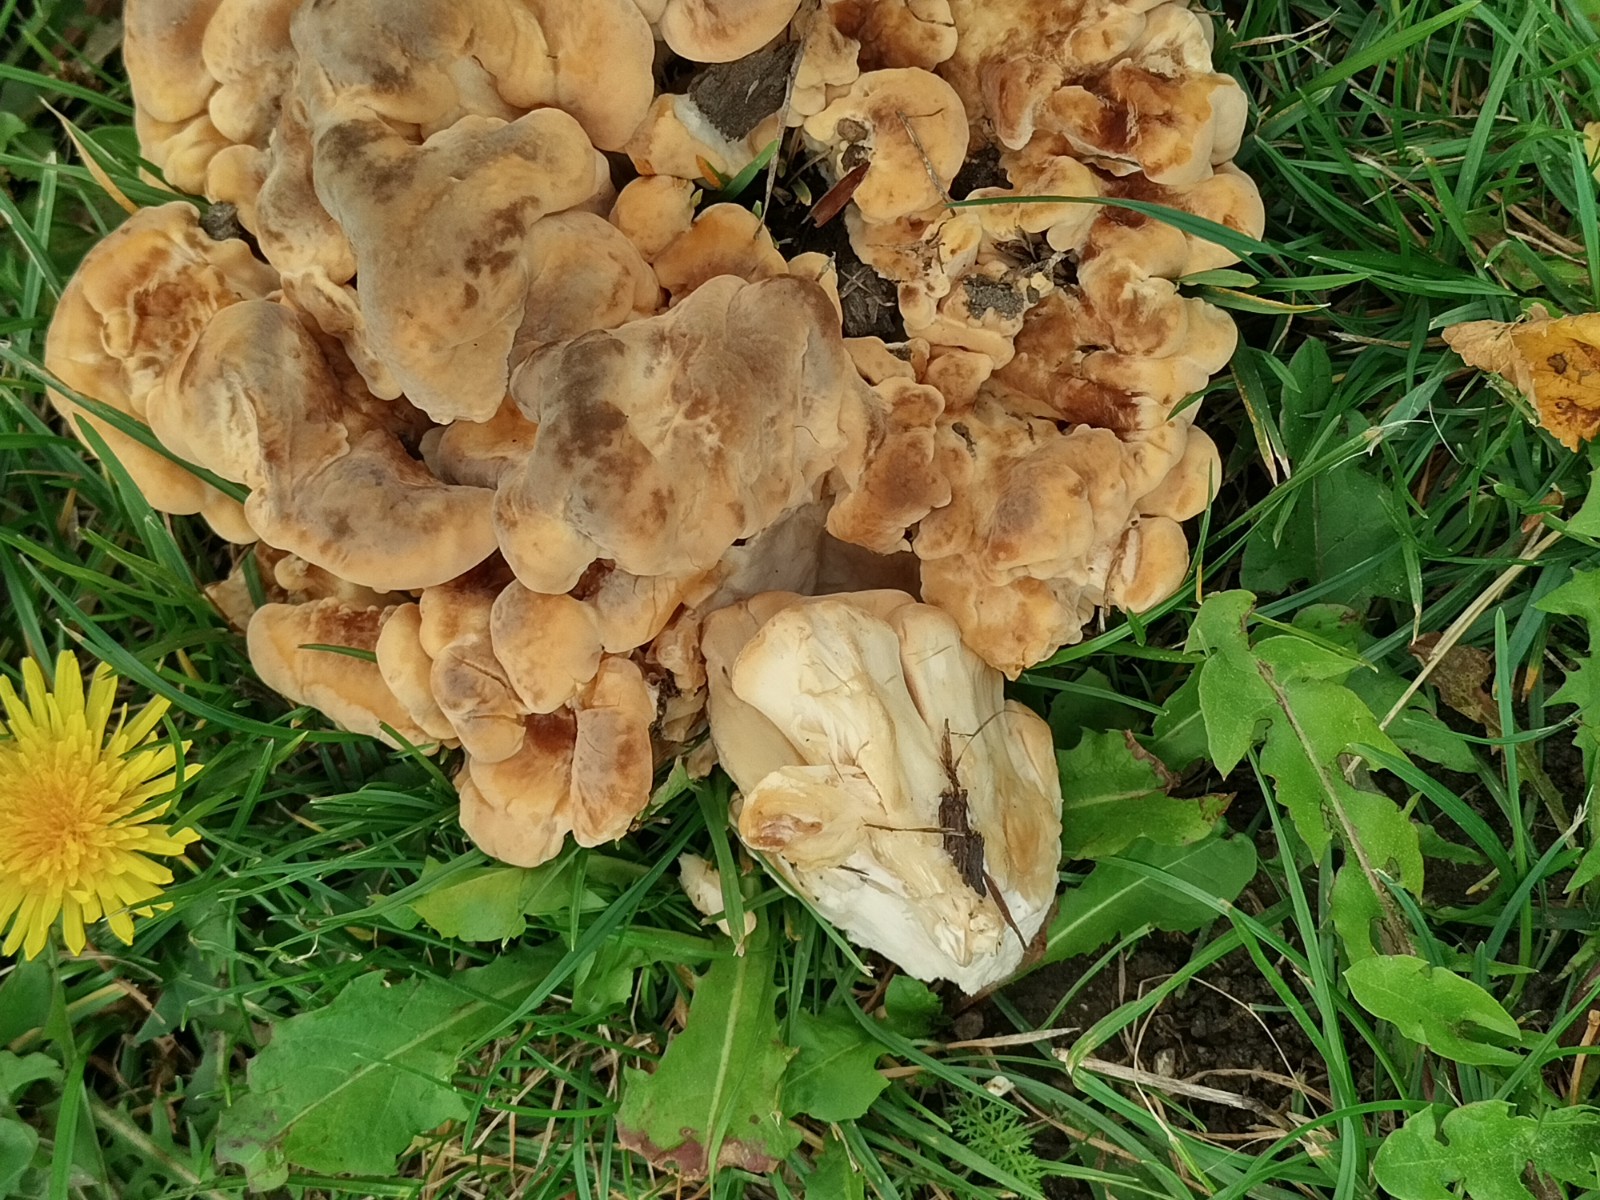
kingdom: Fungi
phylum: Basidiomycota
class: Agaricomycetes
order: Polyporales
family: Meripilaceae
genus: Meripilus
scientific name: Meripilus giganteus
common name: kæmpeporesvamp
